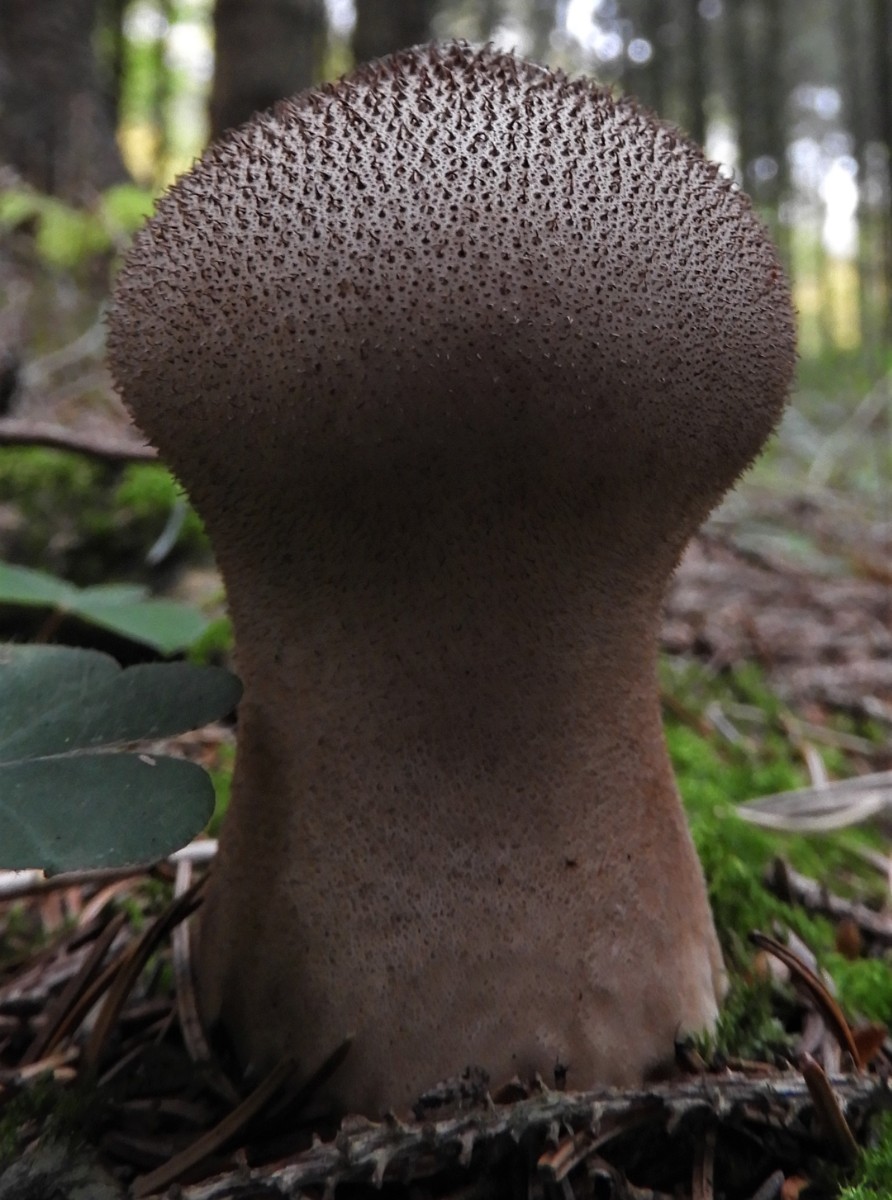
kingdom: Fungi
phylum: Basidiomycota
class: Agaricomycetes
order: Agaricales
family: Lycoperdaceae
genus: Lycoperdon
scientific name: Lycoperdon nigrescens
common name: sortagtig støvbold
